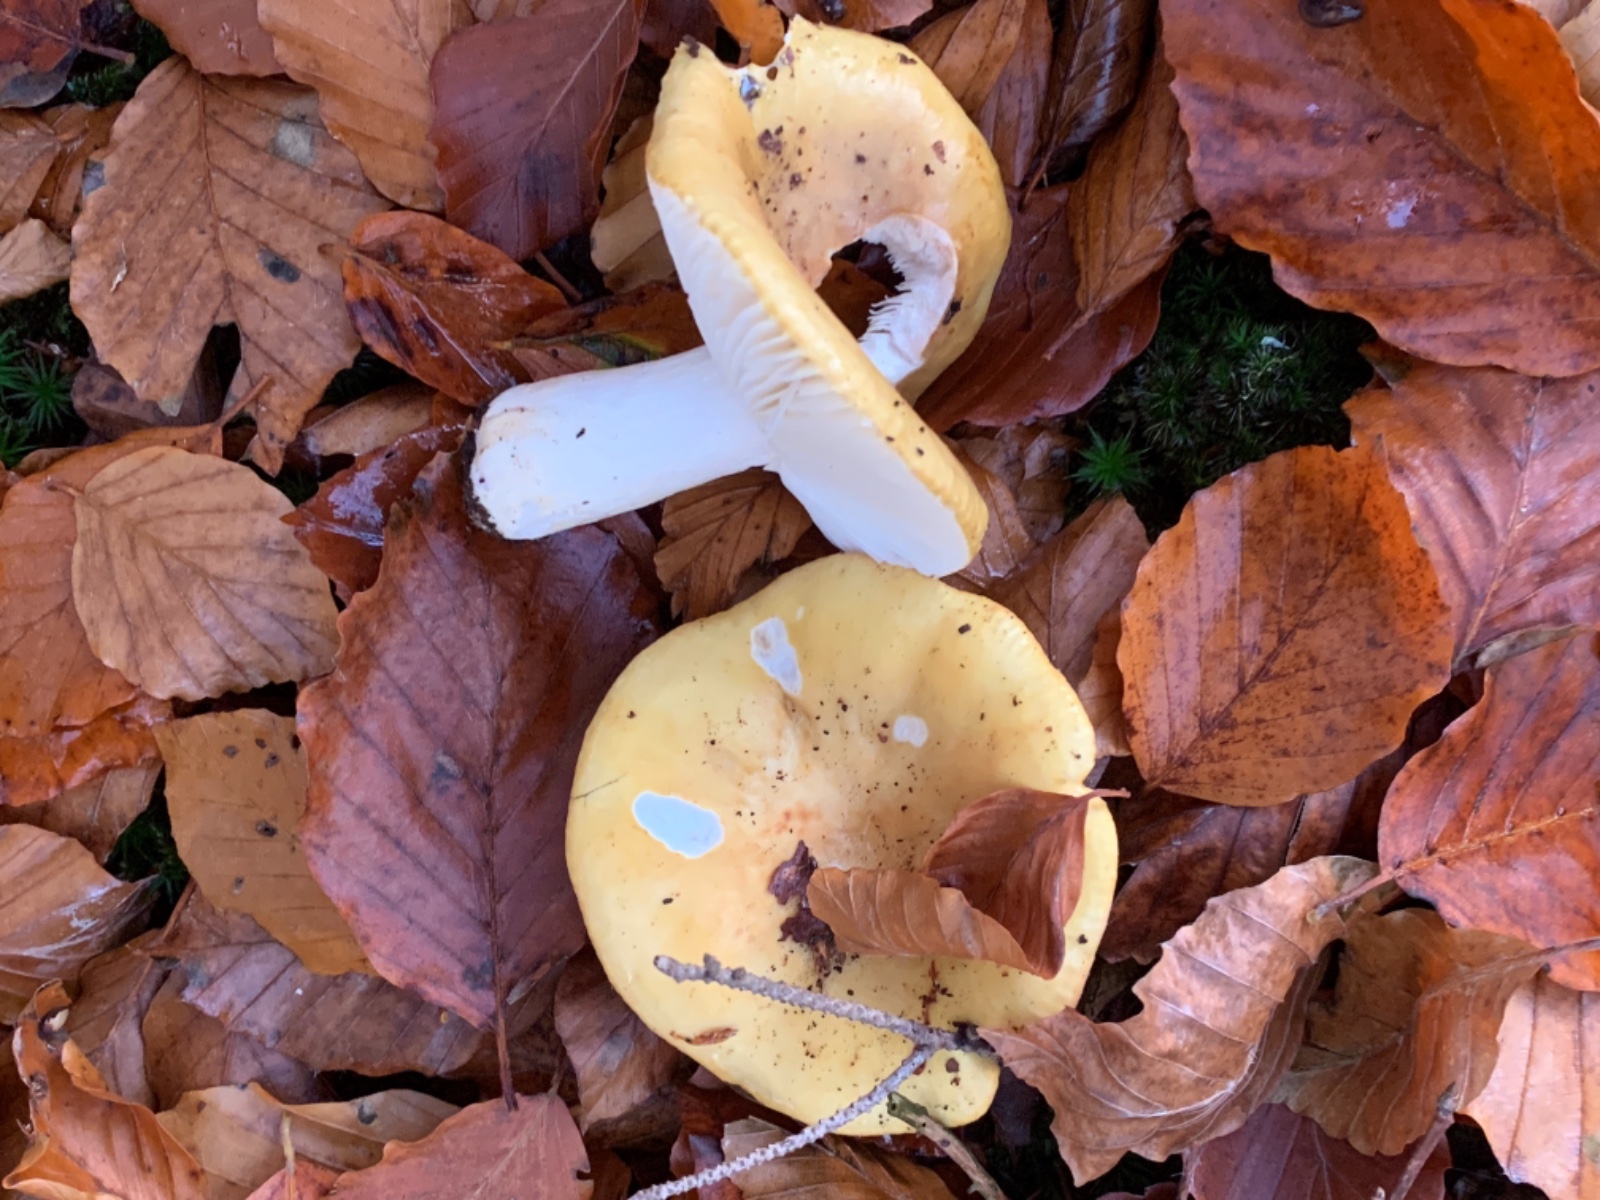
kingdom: Fungi
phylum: Basidiomycota
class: Agaricomycetes
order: Russulales
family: Russulaceae
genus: Russula
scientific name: Russula ochroleuca
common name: okkergul skørhat
